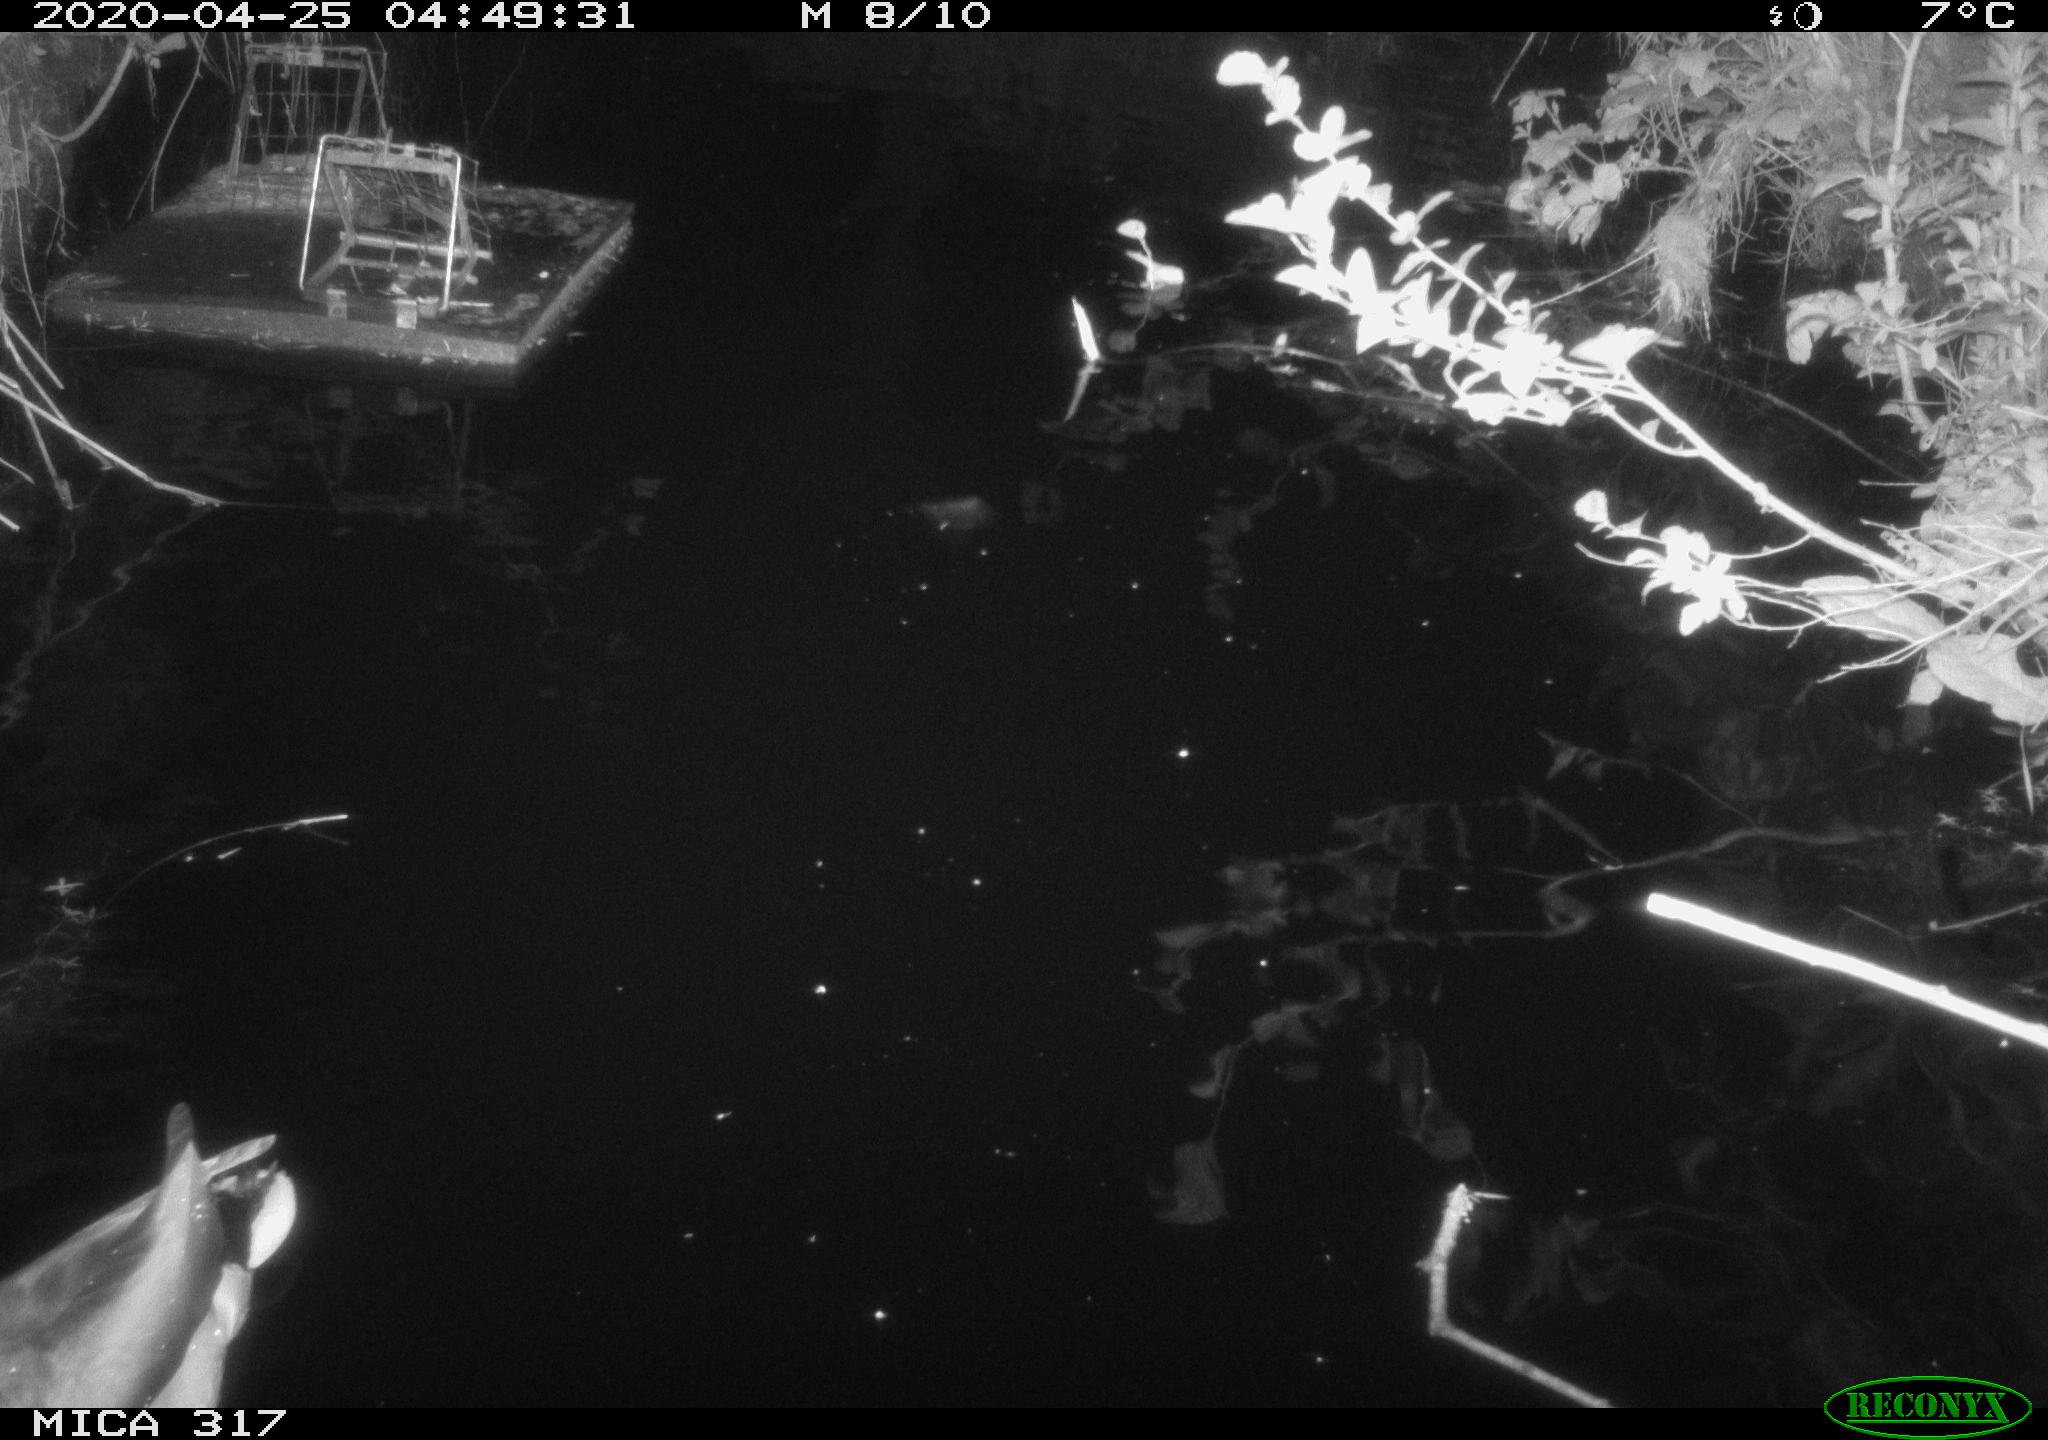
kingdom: Animalia
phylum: Chordata
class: Aves
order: Anseriformes
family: Anatidae
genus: Anas
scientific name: Anas platyrhynchos
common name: Mallard
